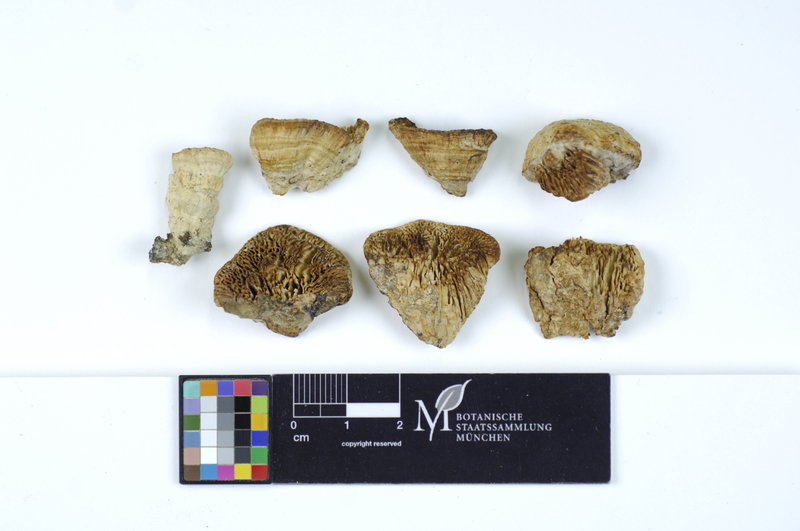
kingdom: Plantae
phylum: Tracheophyta
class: Pinopsida
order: Pinales
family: Pinaceae
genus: Picea
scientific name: Picea
